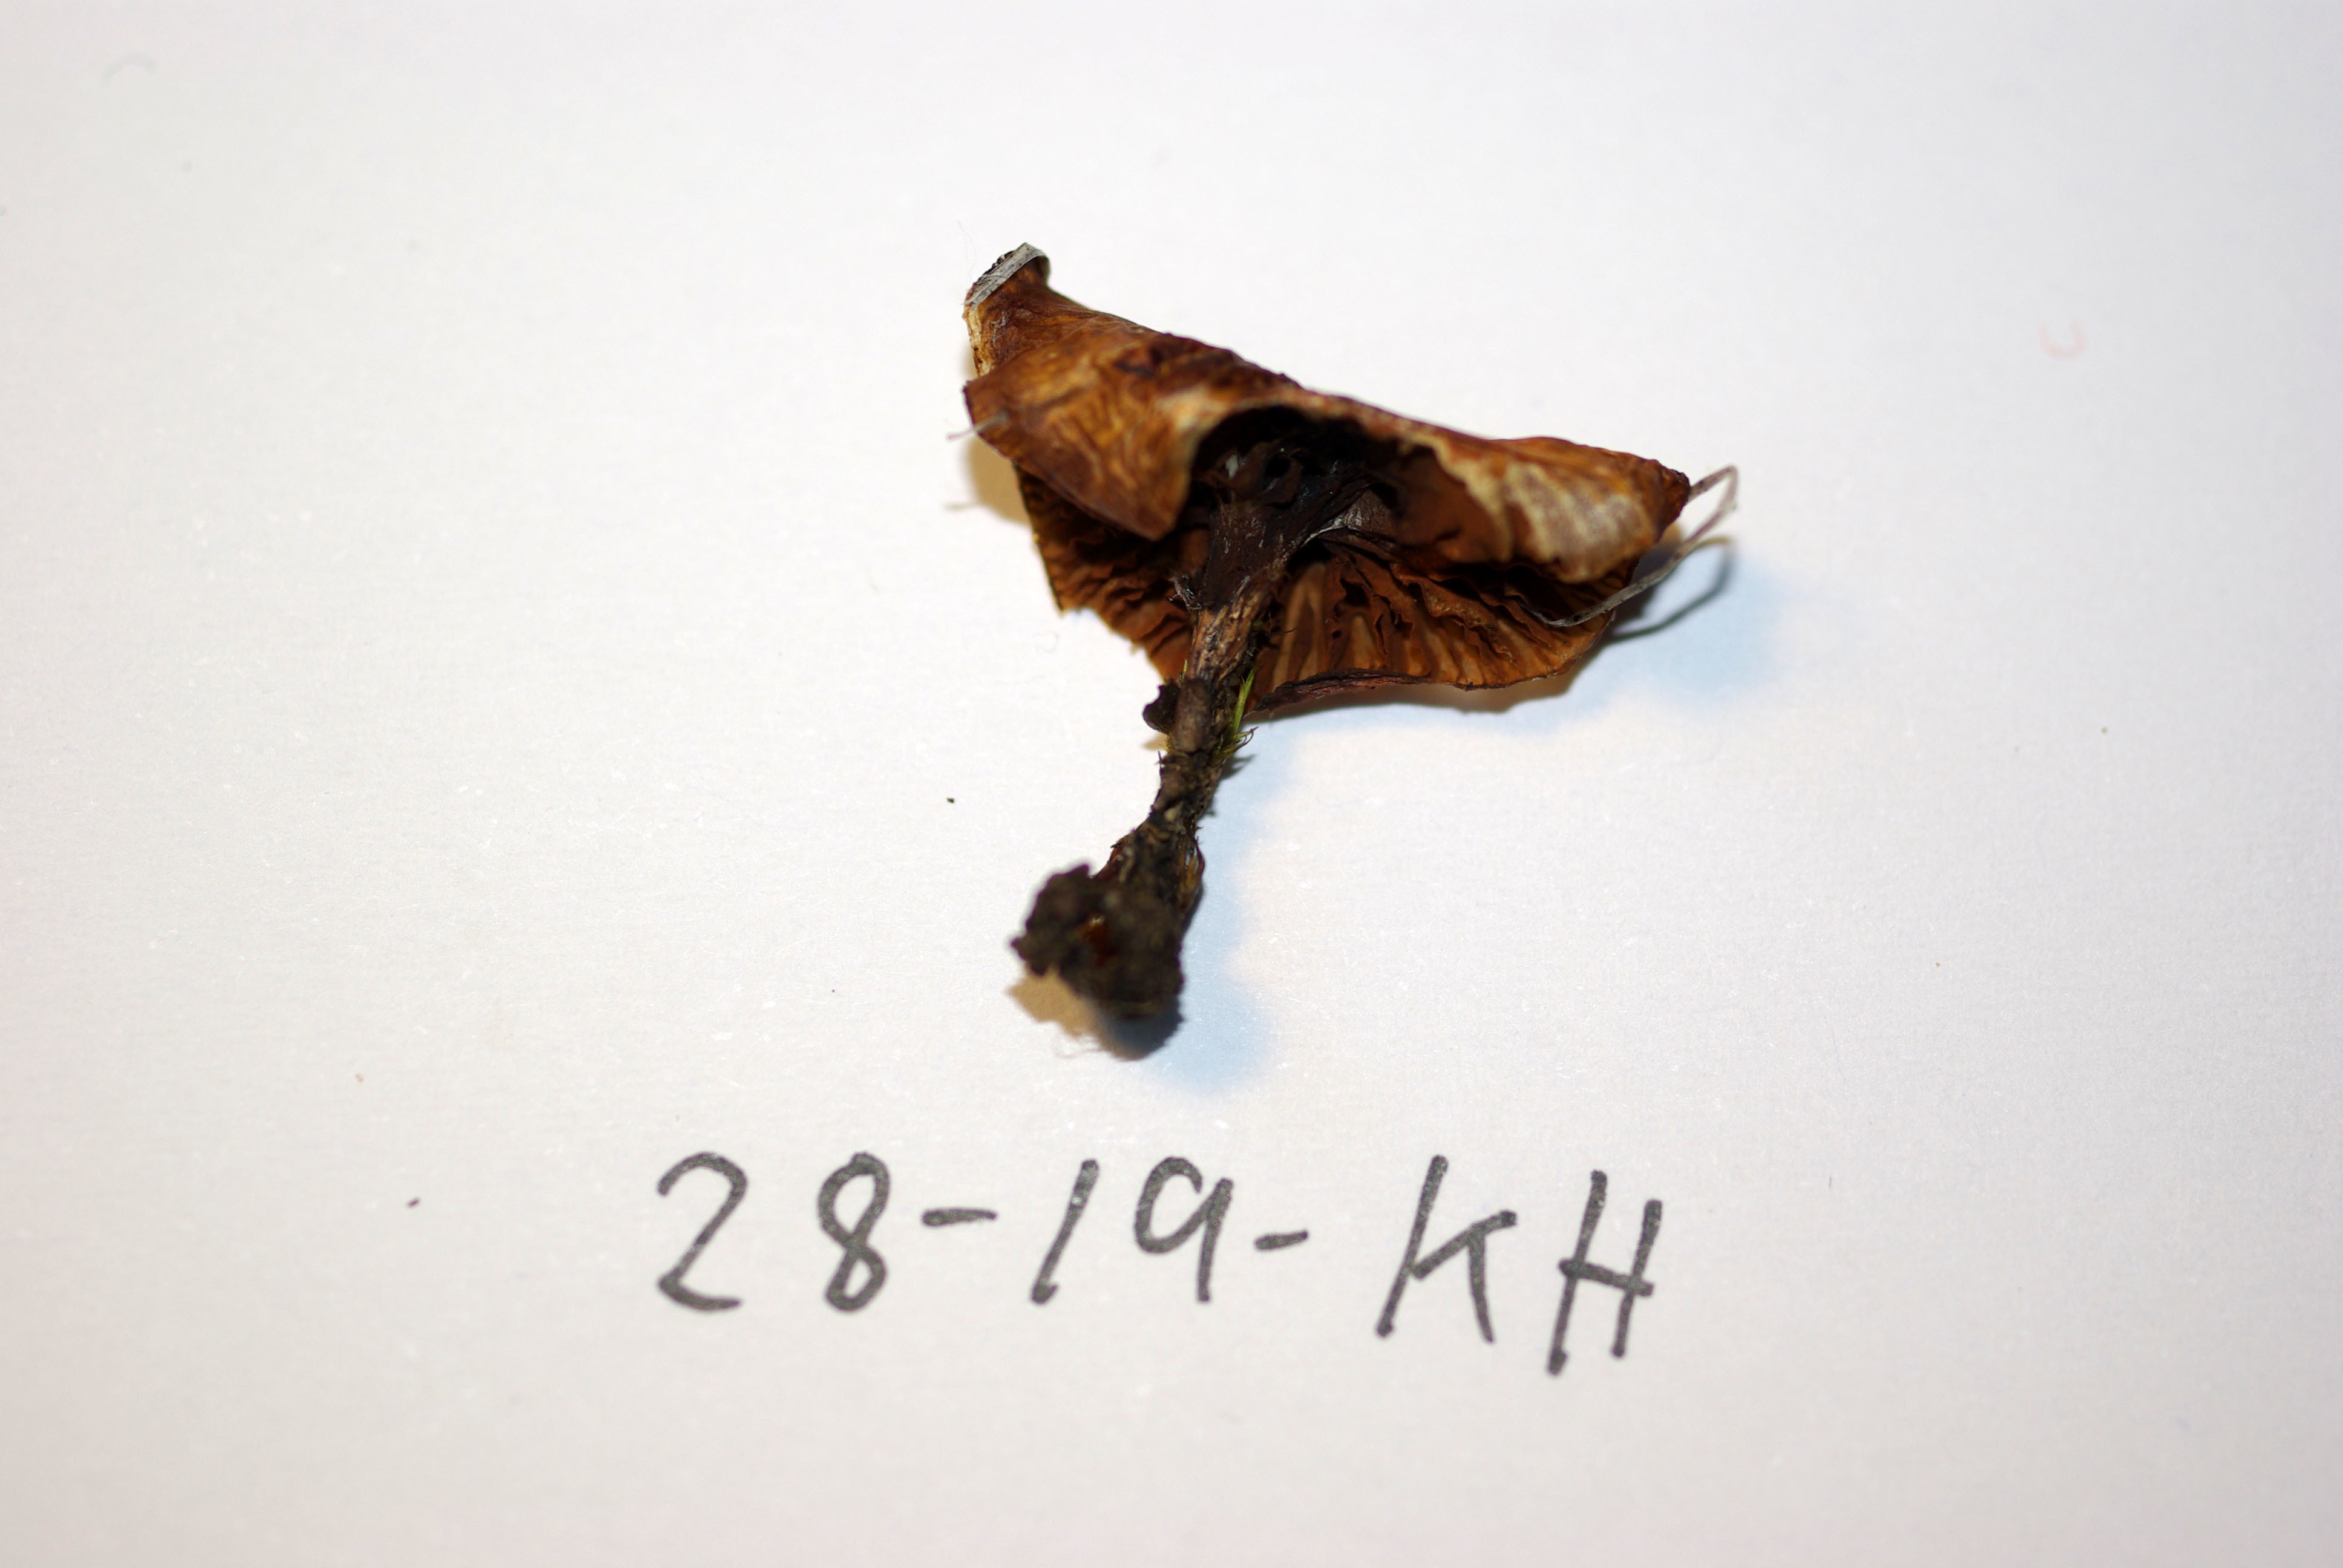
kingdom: Fungi
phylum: Basidiomycota
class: Agaricomycetes
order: Agaricales
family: Cortinariaceae
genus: Cortinarius
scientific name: Cortinarius alpinus
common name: Mountain webcap
